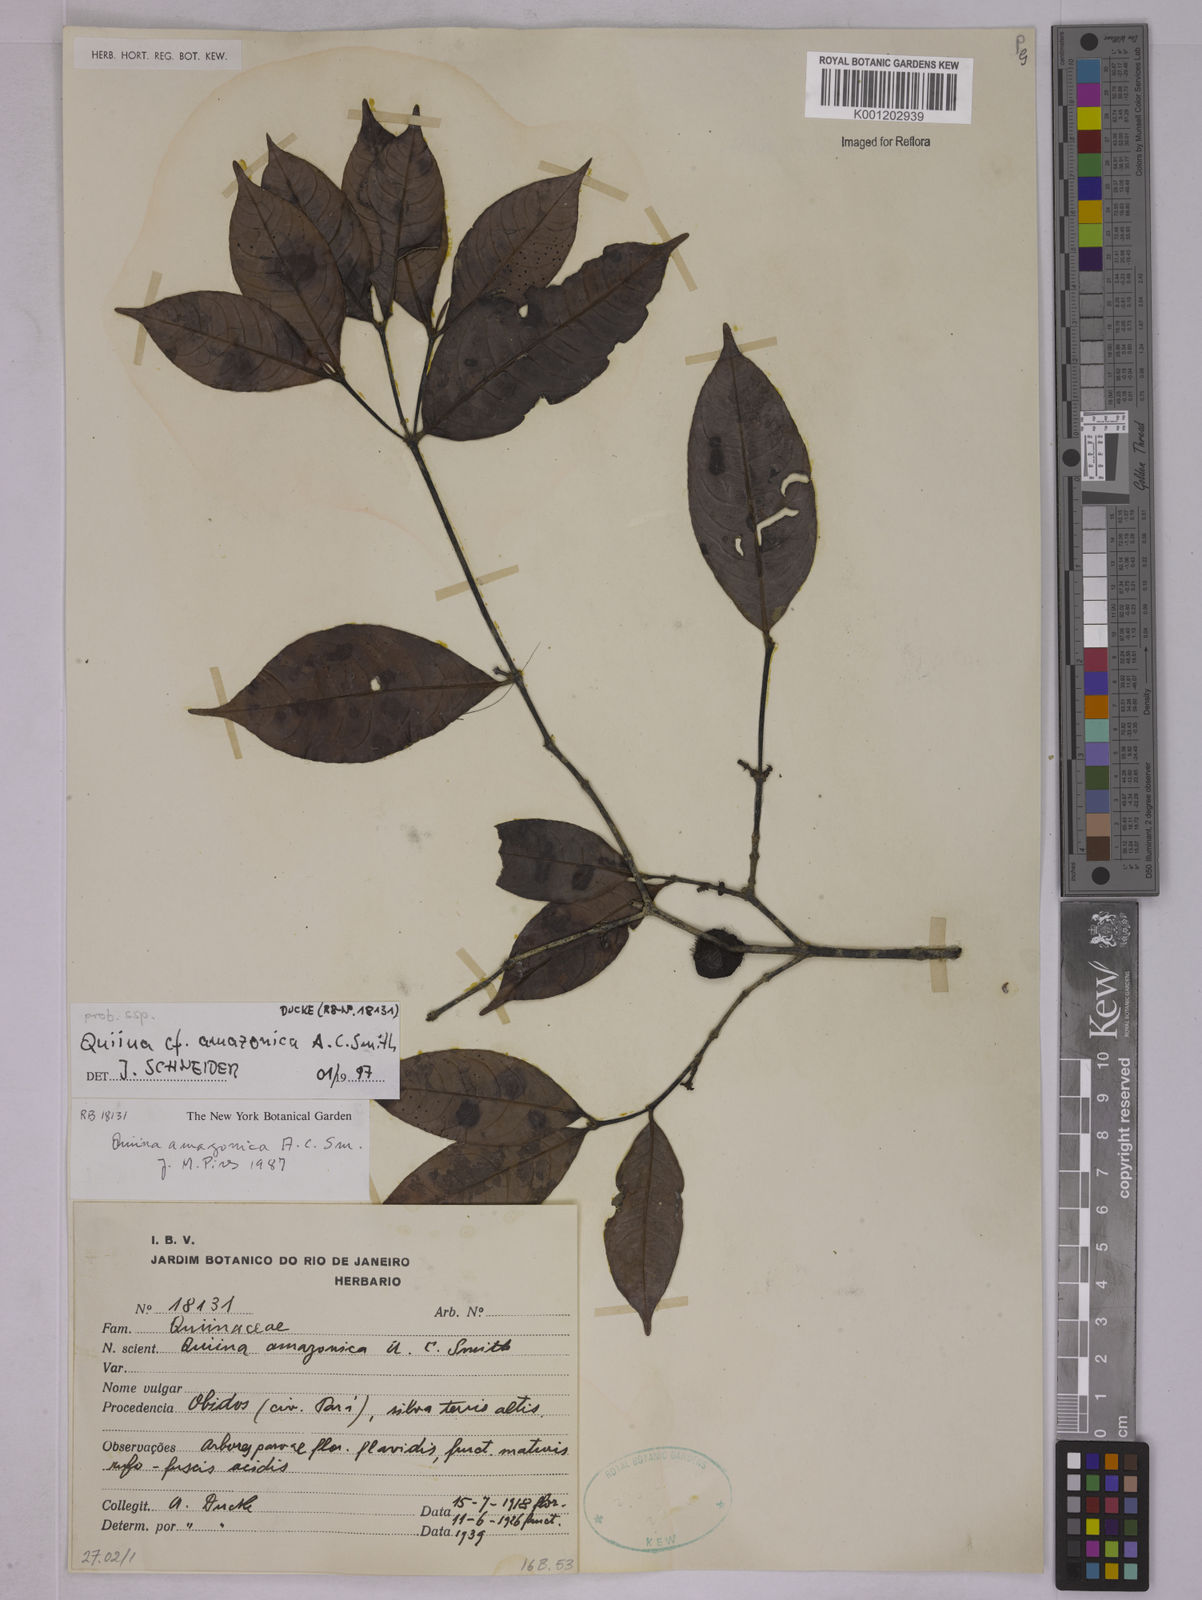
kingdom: Plantae
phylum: Tracheophyta
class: Magnoliopsida
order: Malpighiales
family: Quiinaceae
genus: Quiina
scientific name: Quiina amazonica
